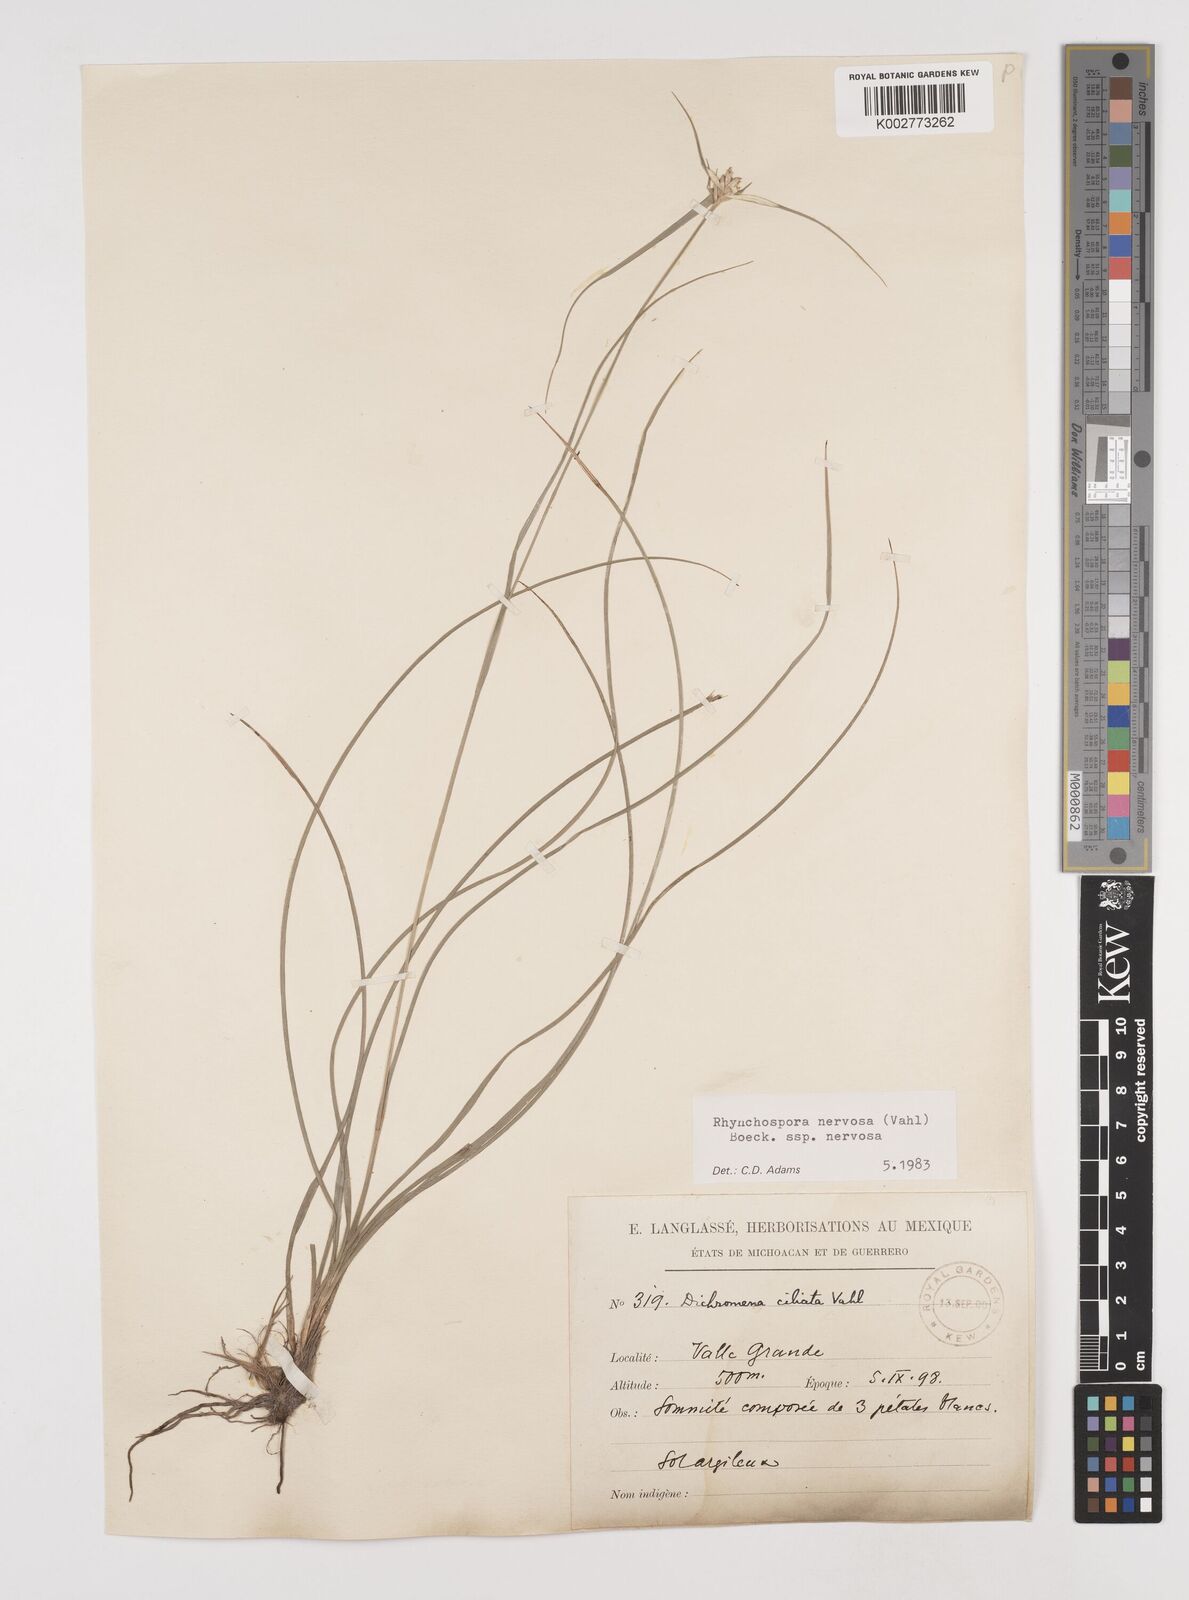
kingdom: Plantae
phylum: Tracheophyta
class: Liliopsida
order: Poales
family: Cyperaceae
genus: Rhynchospora
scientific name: Rhynchospora nervosa
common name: Star sedge
